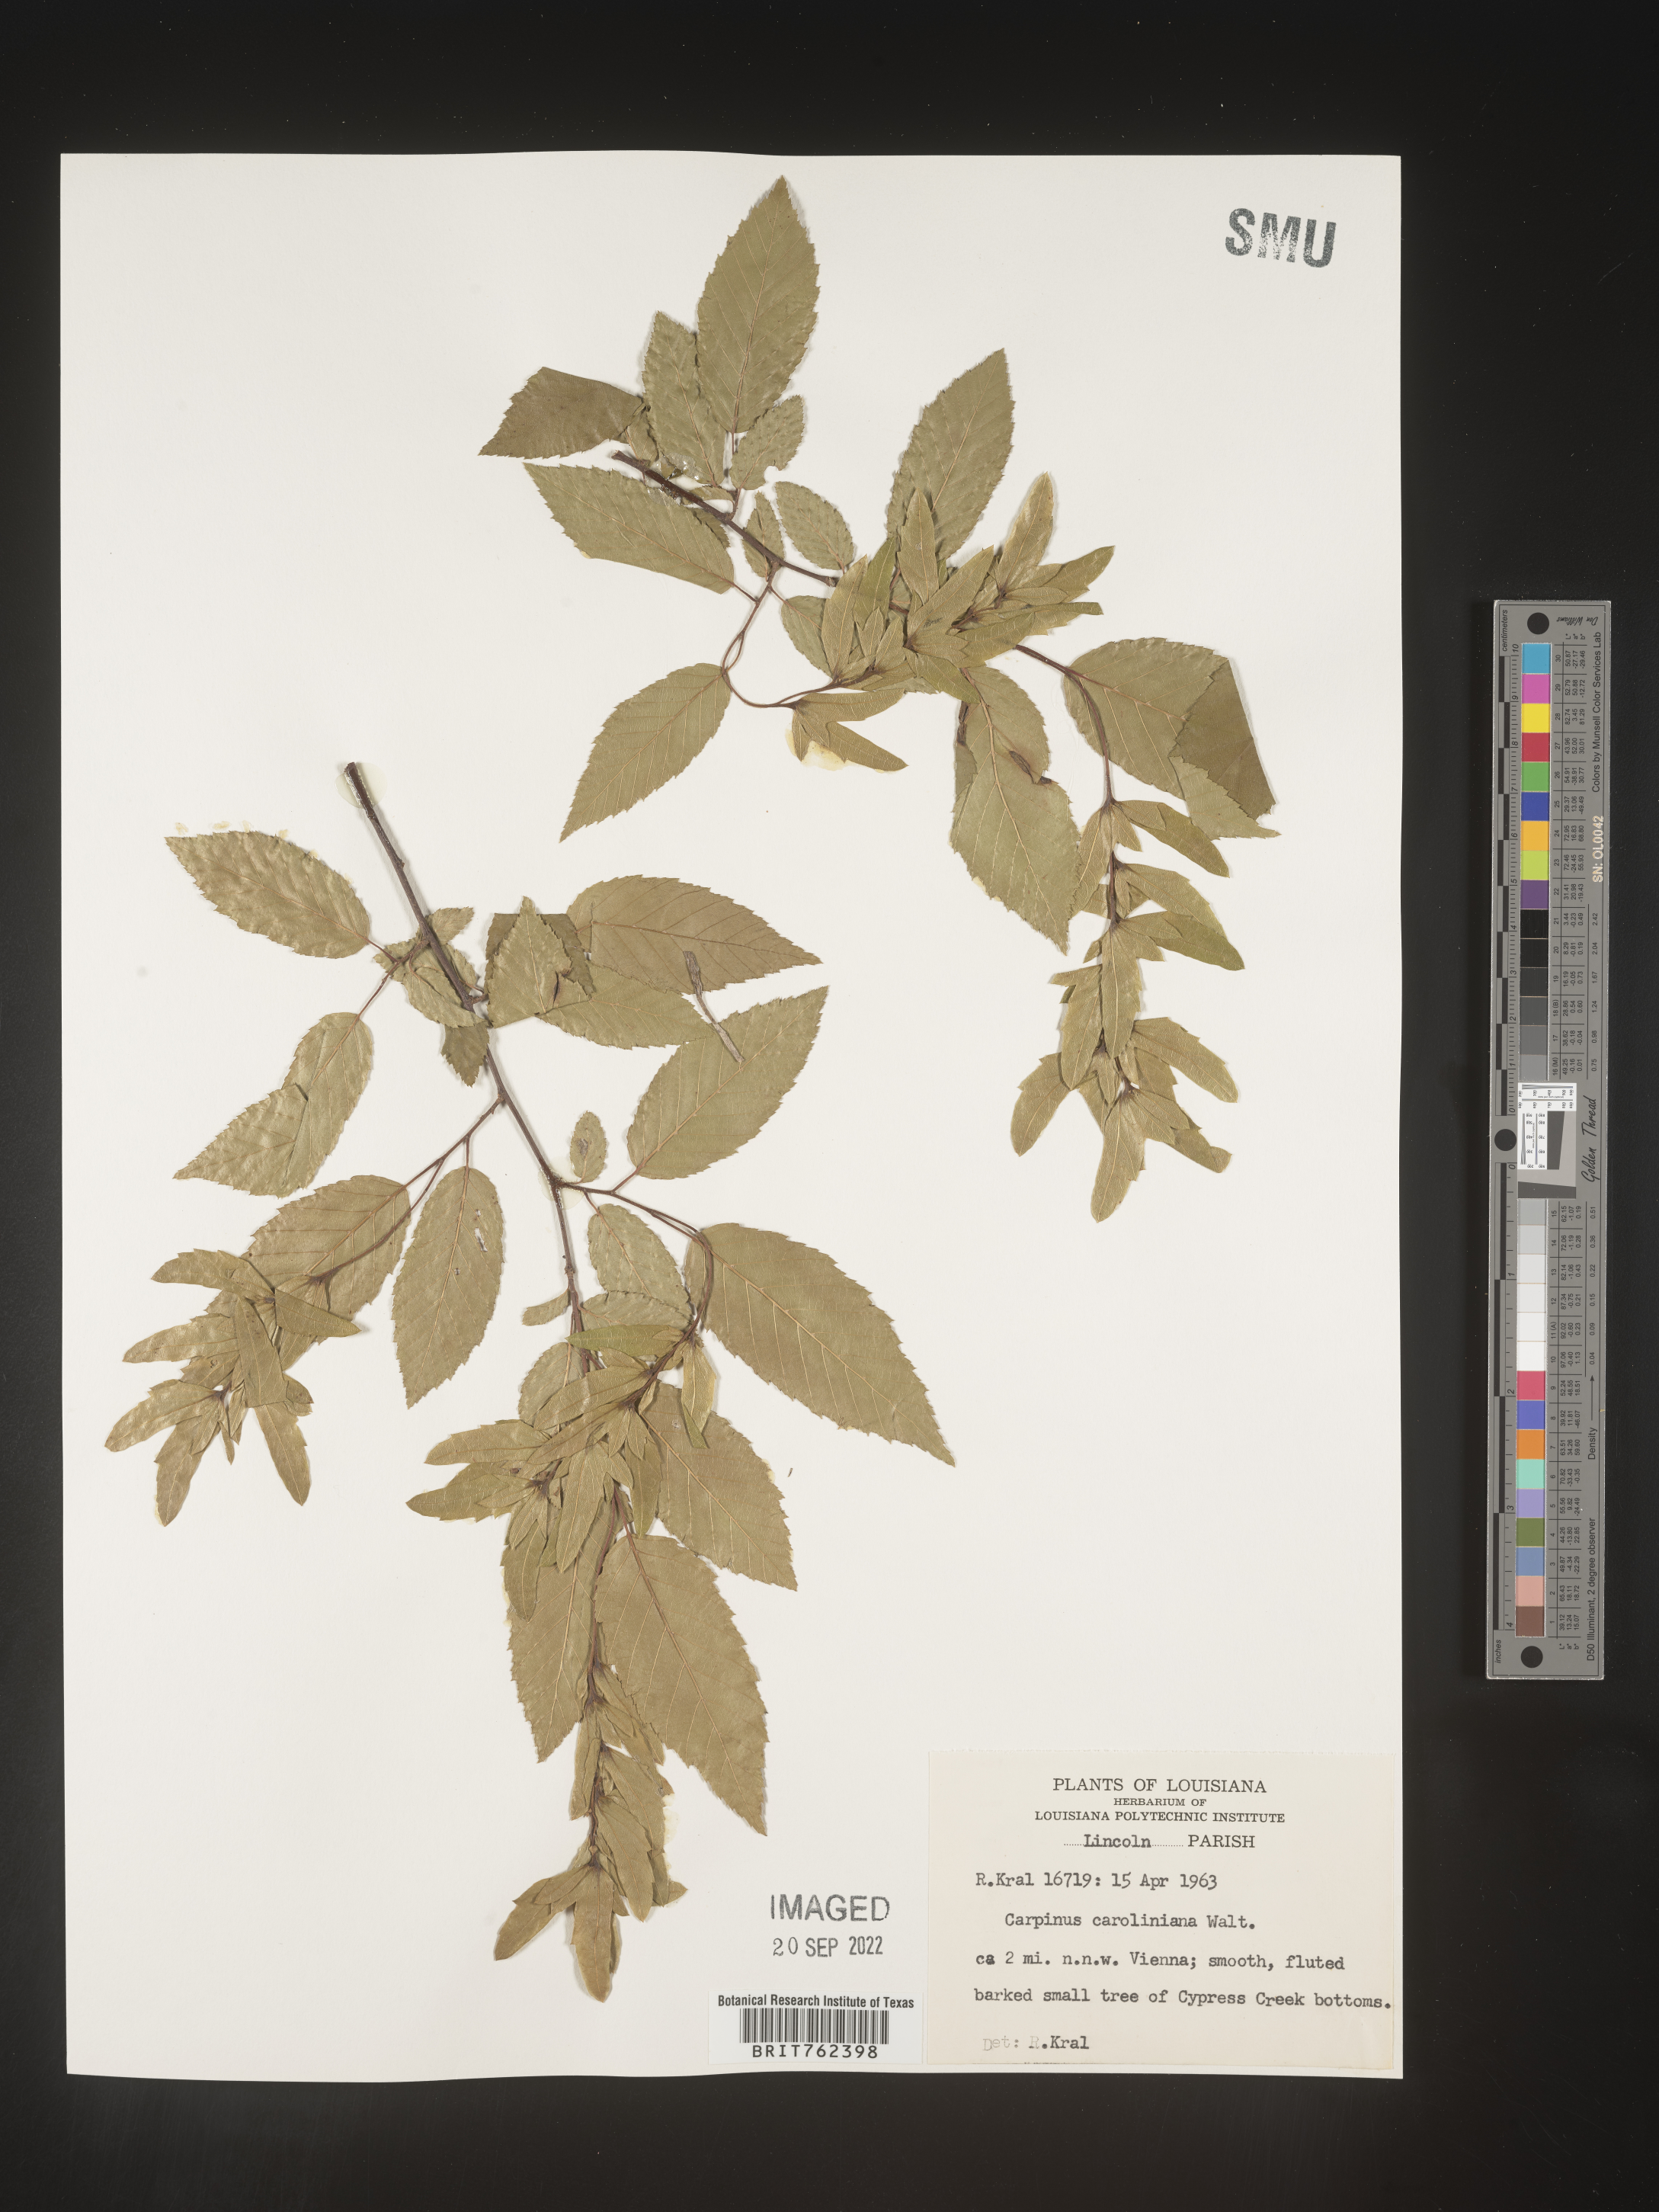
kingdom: Plantae
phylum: Tracheophyta
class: Magnoliopsida
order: Fagales
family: Betulaceae
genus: Carpinus
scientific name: Carpinus caroliniana
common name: American hornbeam
